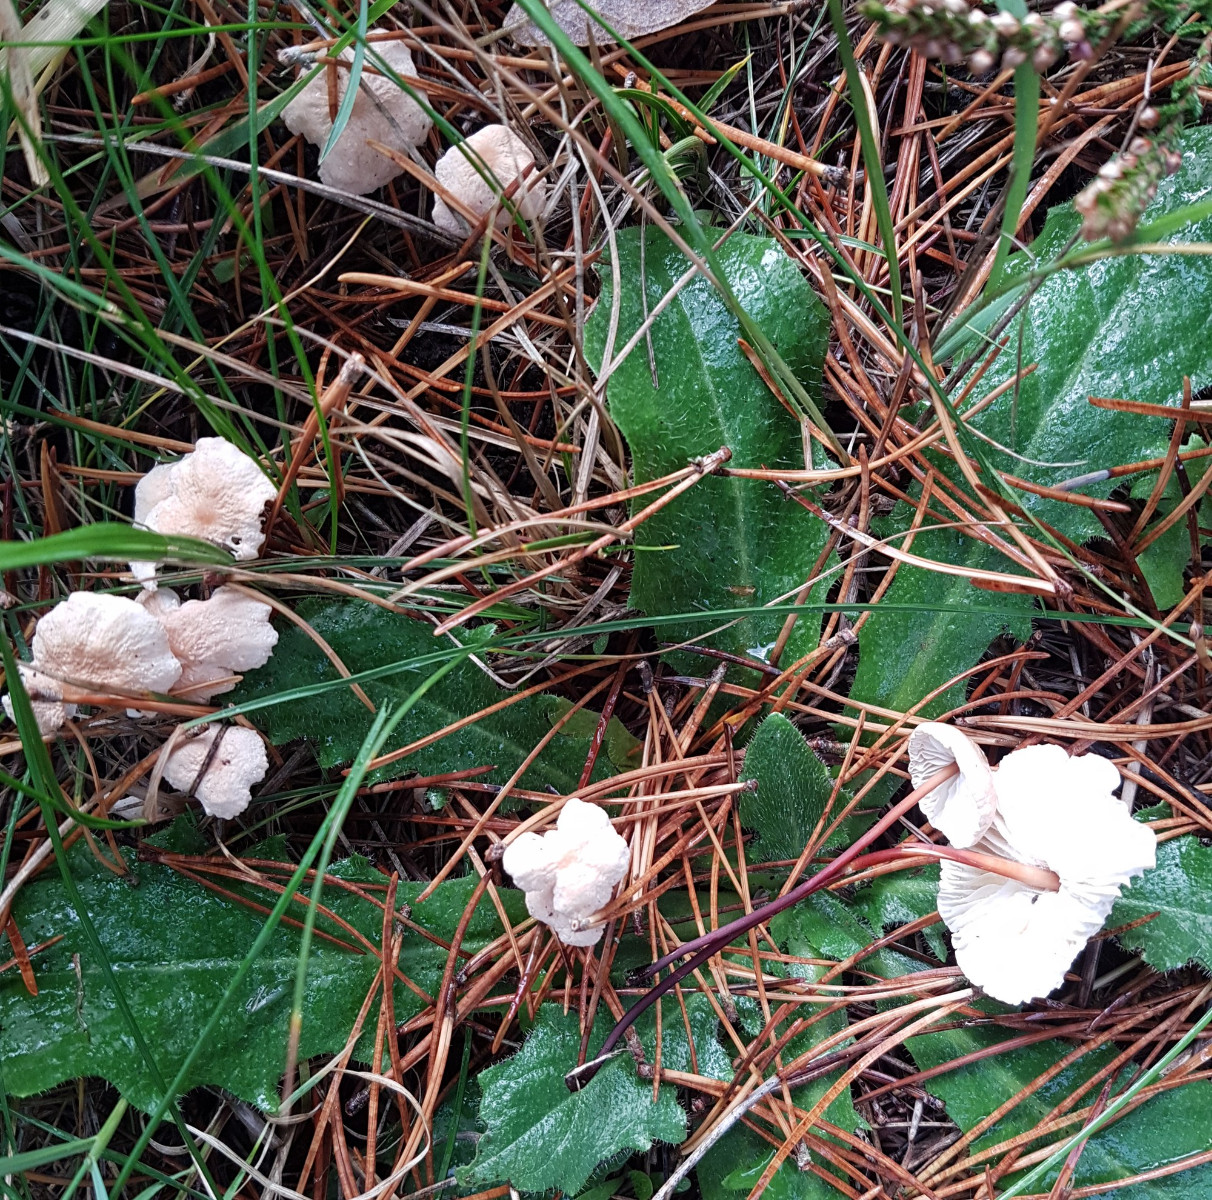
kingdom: Fungi
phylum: Basidiomycota
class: Agaricomycetes
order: Agaricales
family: Omphalotaceae
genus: Mycetinis
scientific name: Mycetinis scorodonius
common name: lille løghat
